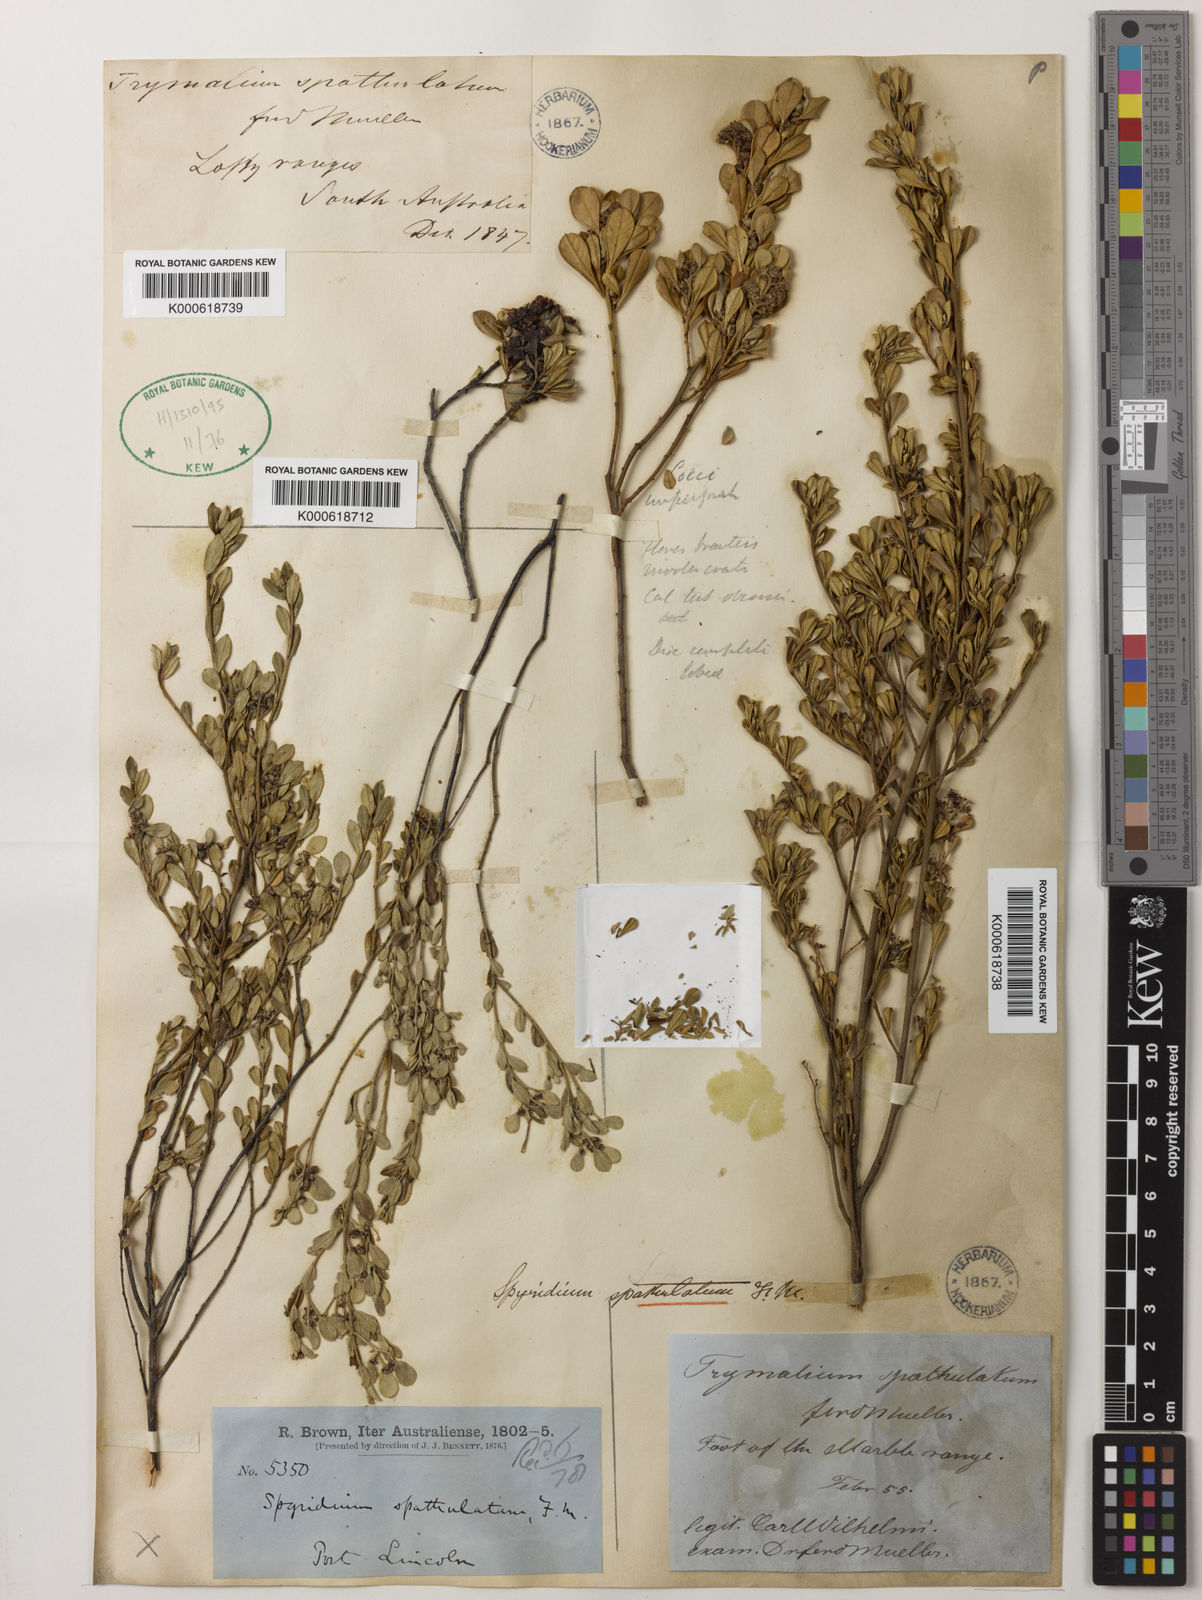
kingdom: Plantae
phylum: Tracheophyta
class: Magnoliopsida
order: Rosales
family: Rhamnaceae
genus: Spyridium
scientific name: Spyridium spathulatum
